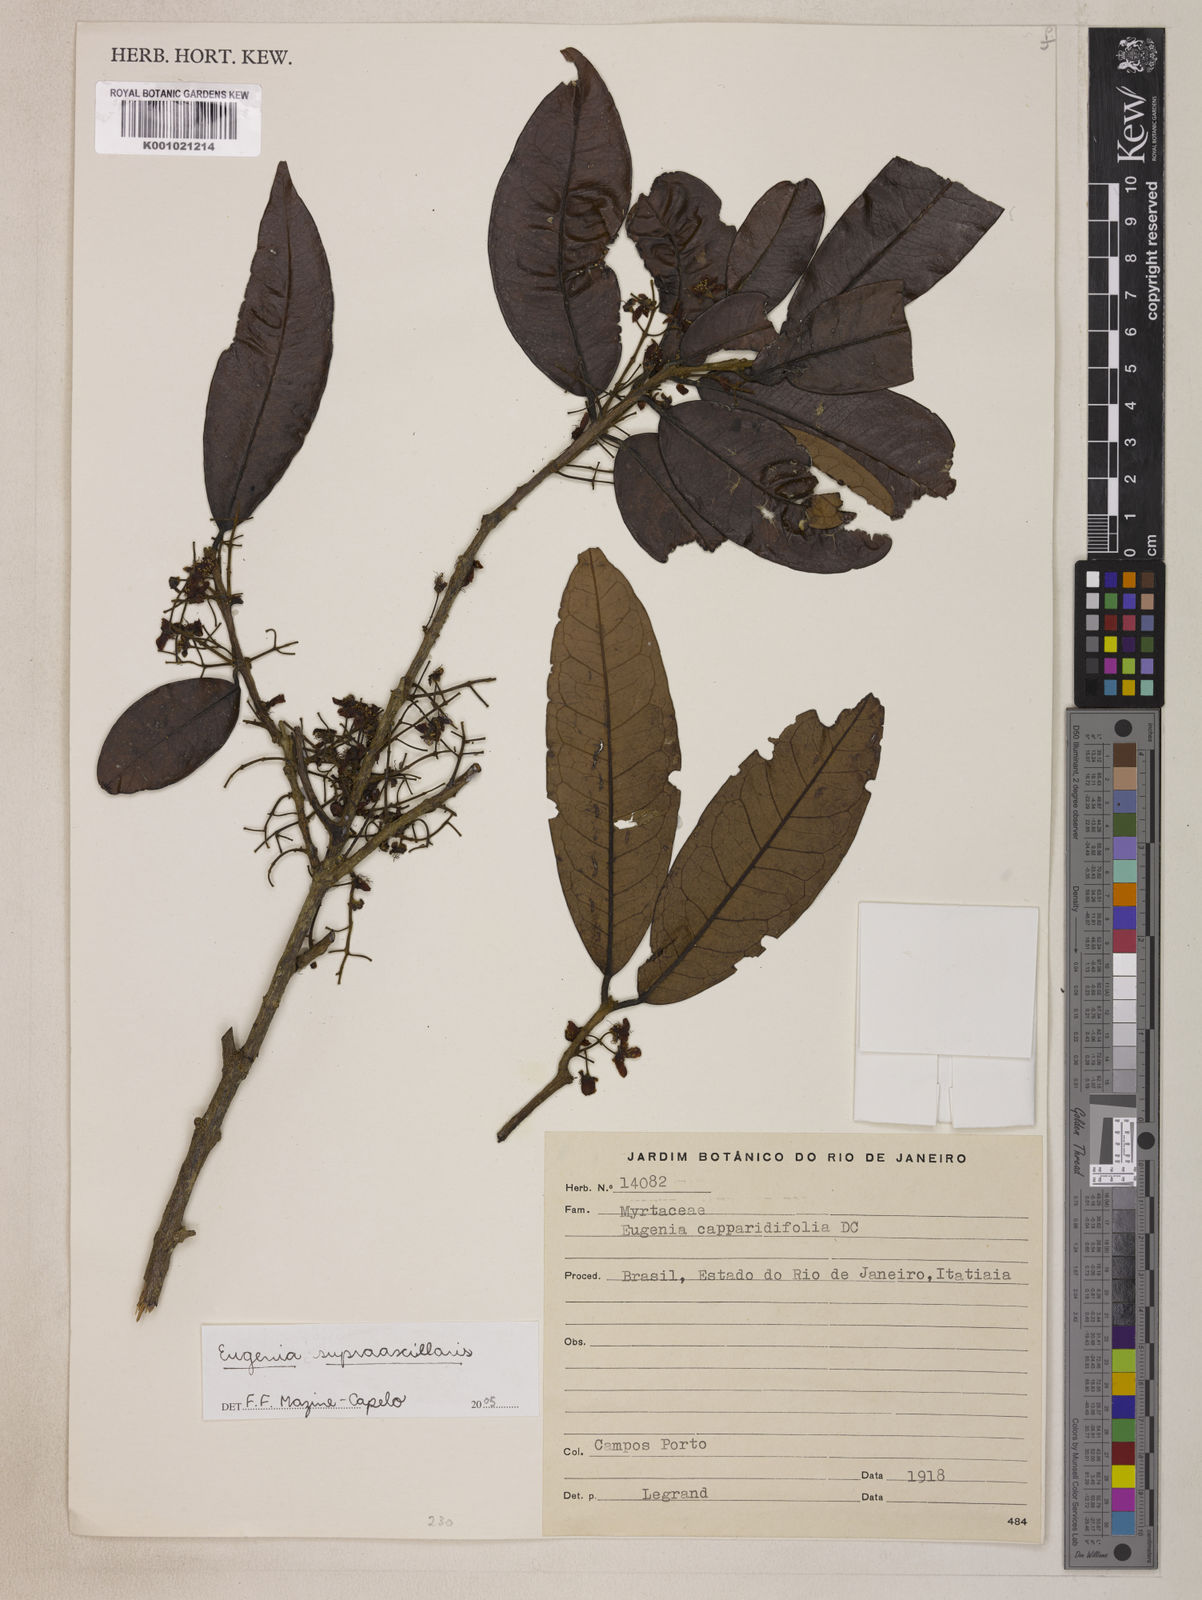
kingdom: Plantae
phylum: Tracheophyta
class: Magnoliopsida
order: Myrtales
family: Myrtaceae
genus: Eugenia
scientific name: Eugenia
